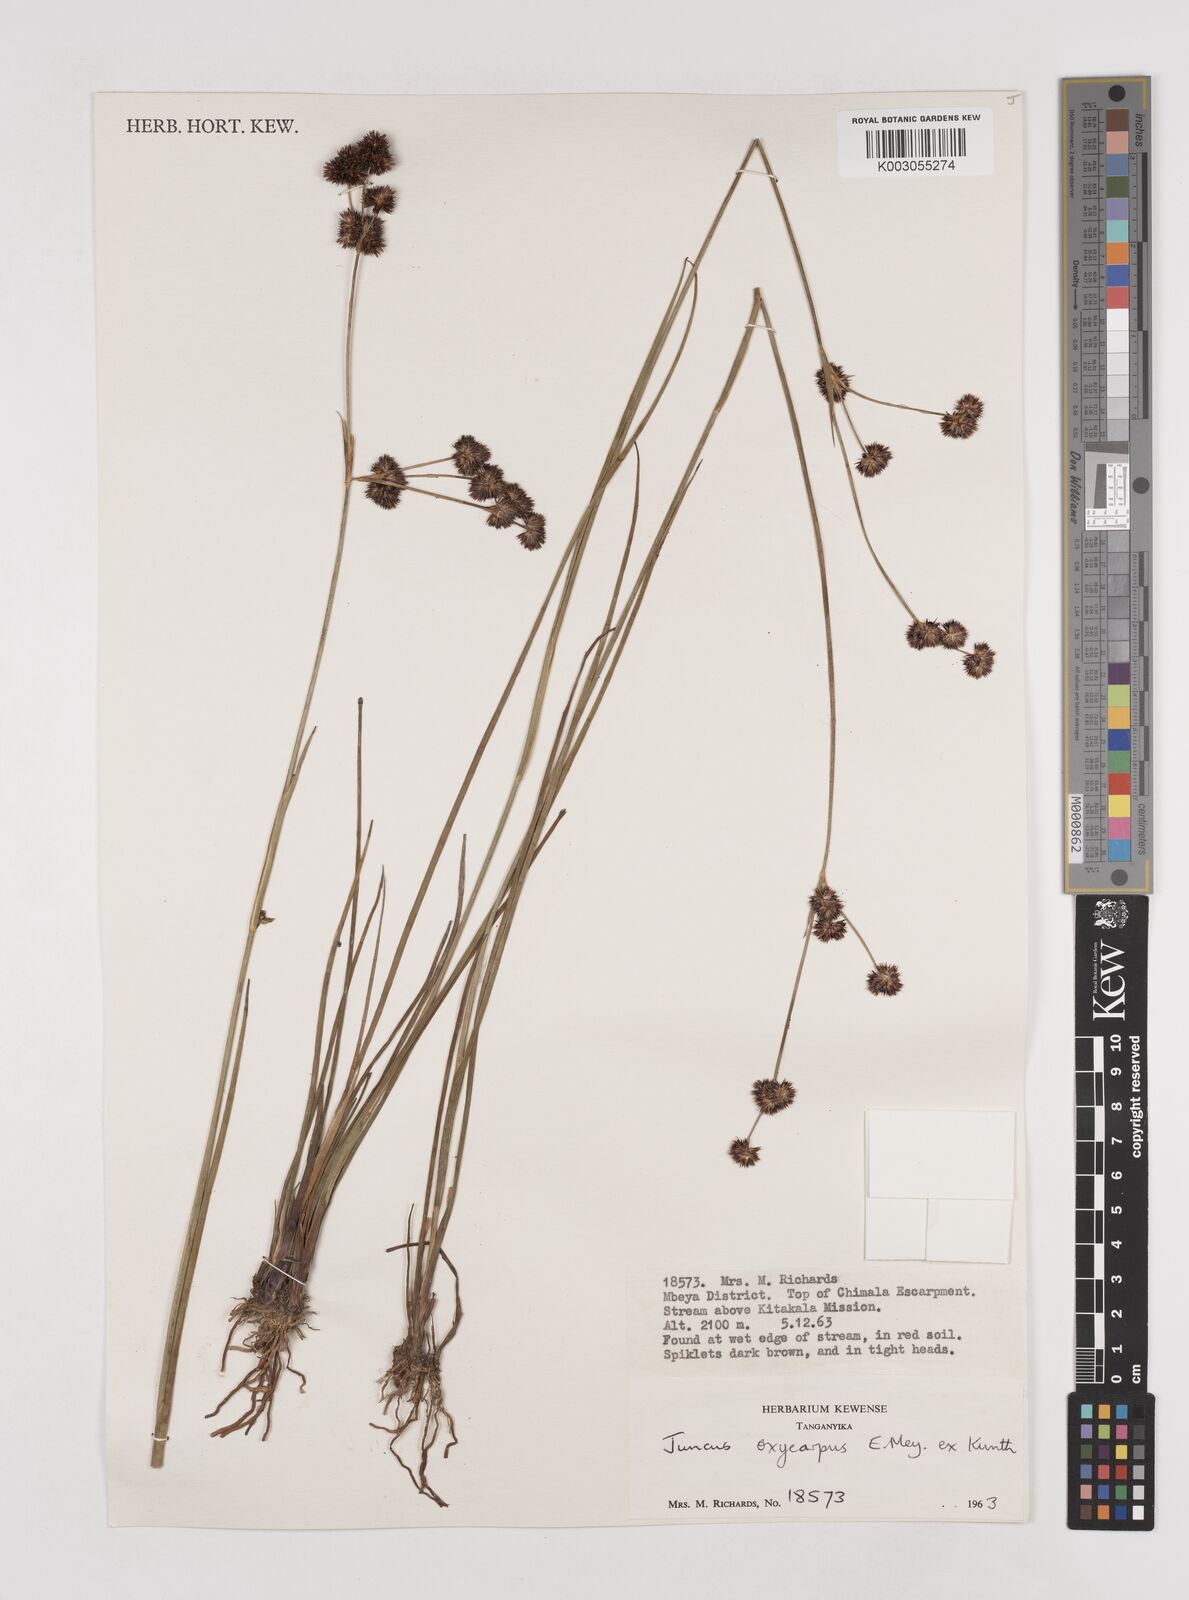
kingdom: Plantae
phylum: Tracheophyta
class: Liliopsida
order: Poales
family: Juncaceae
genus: Juncus
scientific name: Juncus oxycarpus
